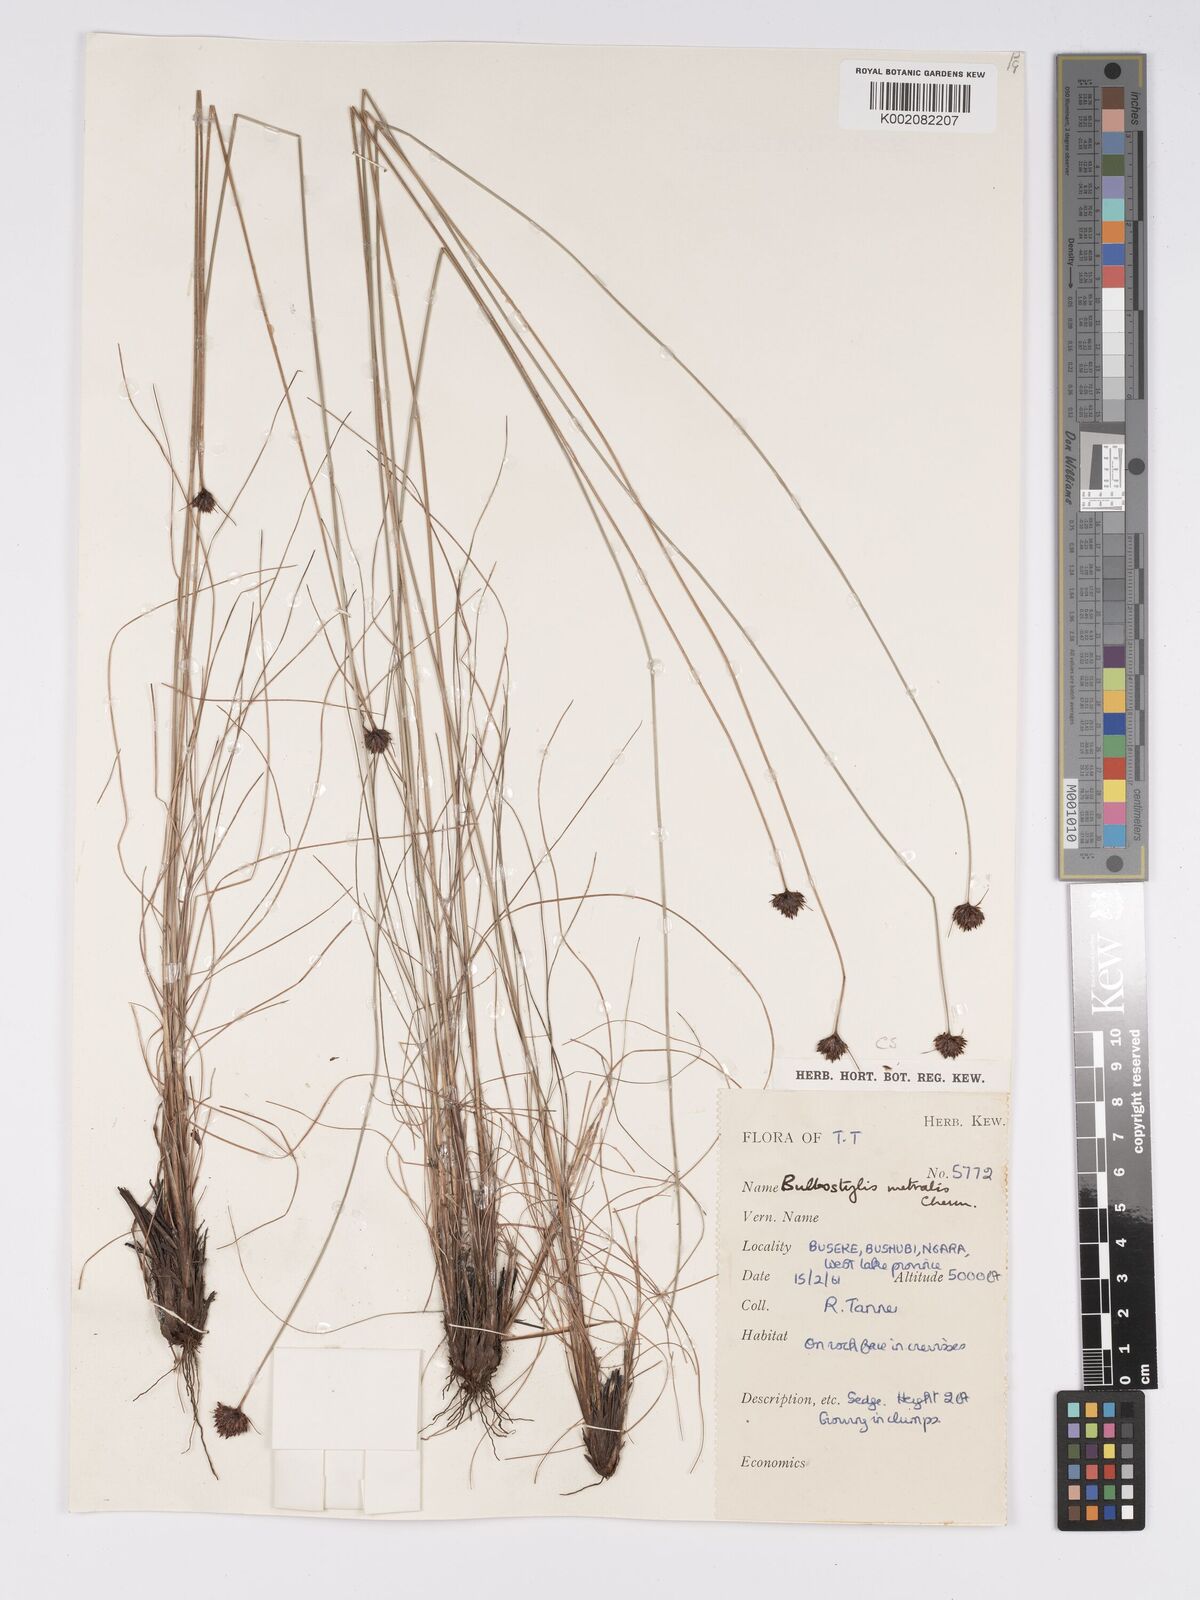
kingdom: Plantae
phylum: Tracheophyta
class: Liliopsida
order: Poales
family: Cyperaceae
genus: Bulbostylis
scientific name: Bulbostylis filamentosa
